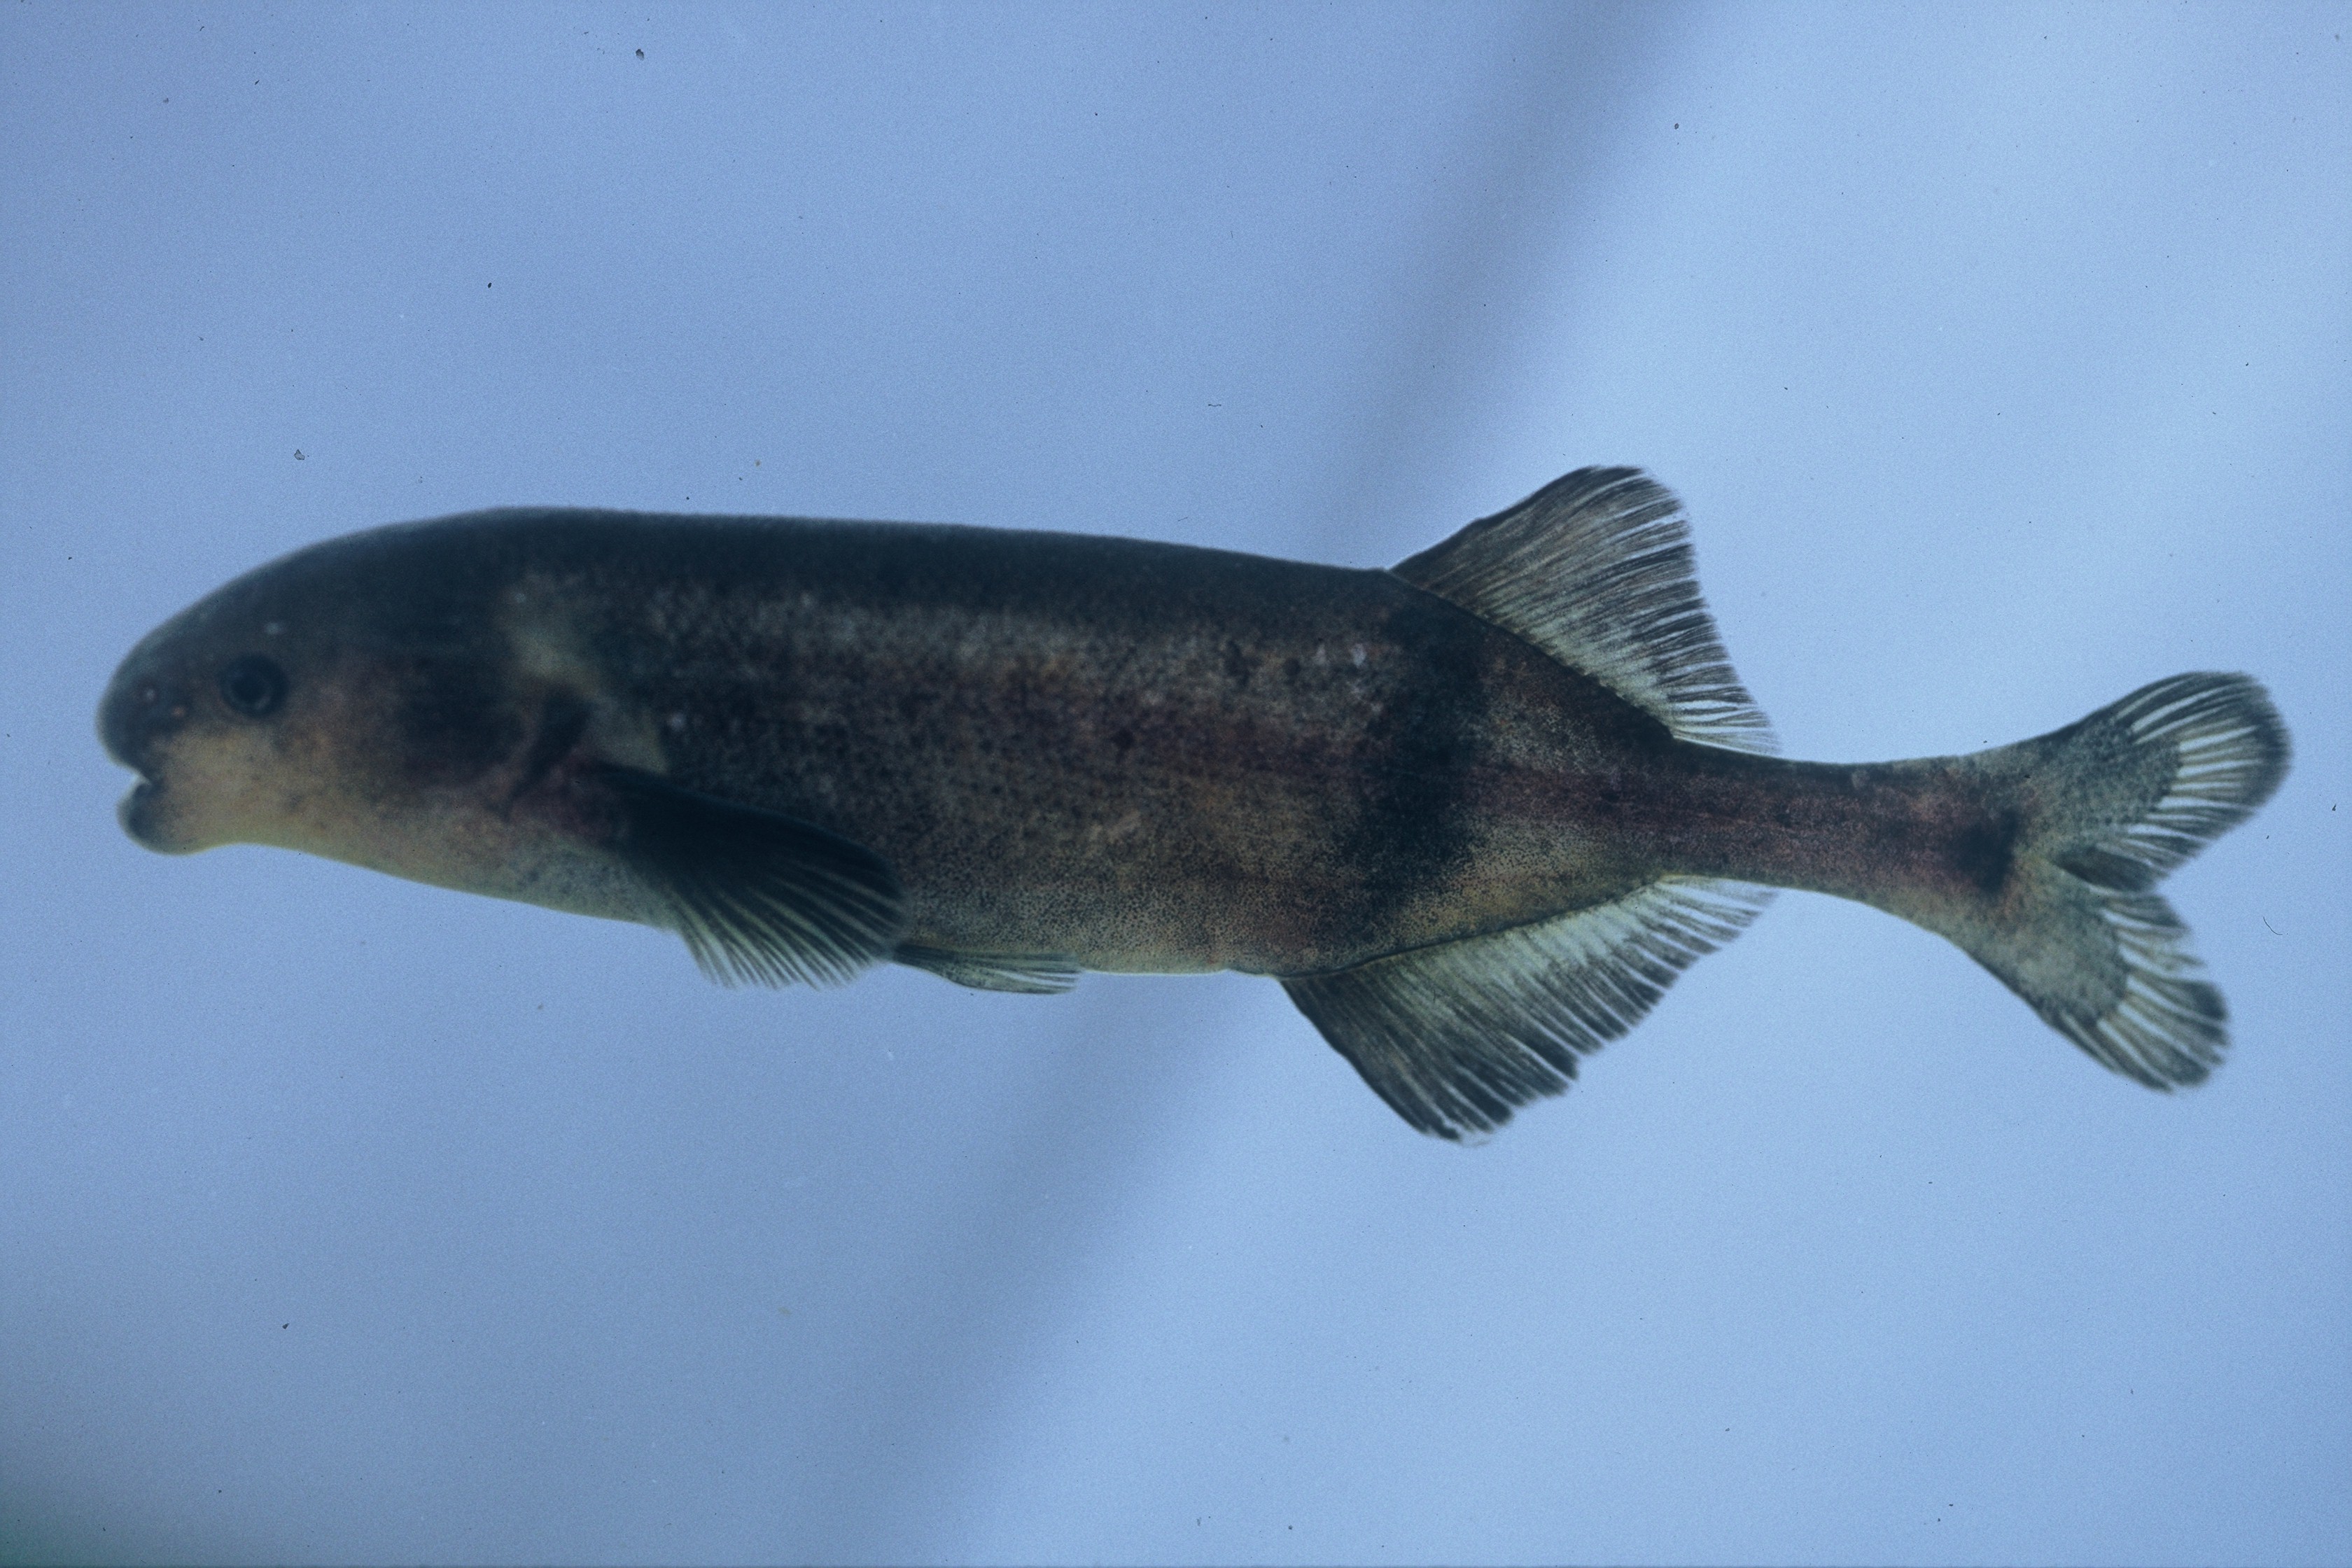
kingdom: Animalia
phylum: Chordata
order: Osteoglossiformes
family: Mormyridae
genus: Hippopotamyrus
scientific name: Hippopotamyrus ansorgii
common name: Slender stonebasher
